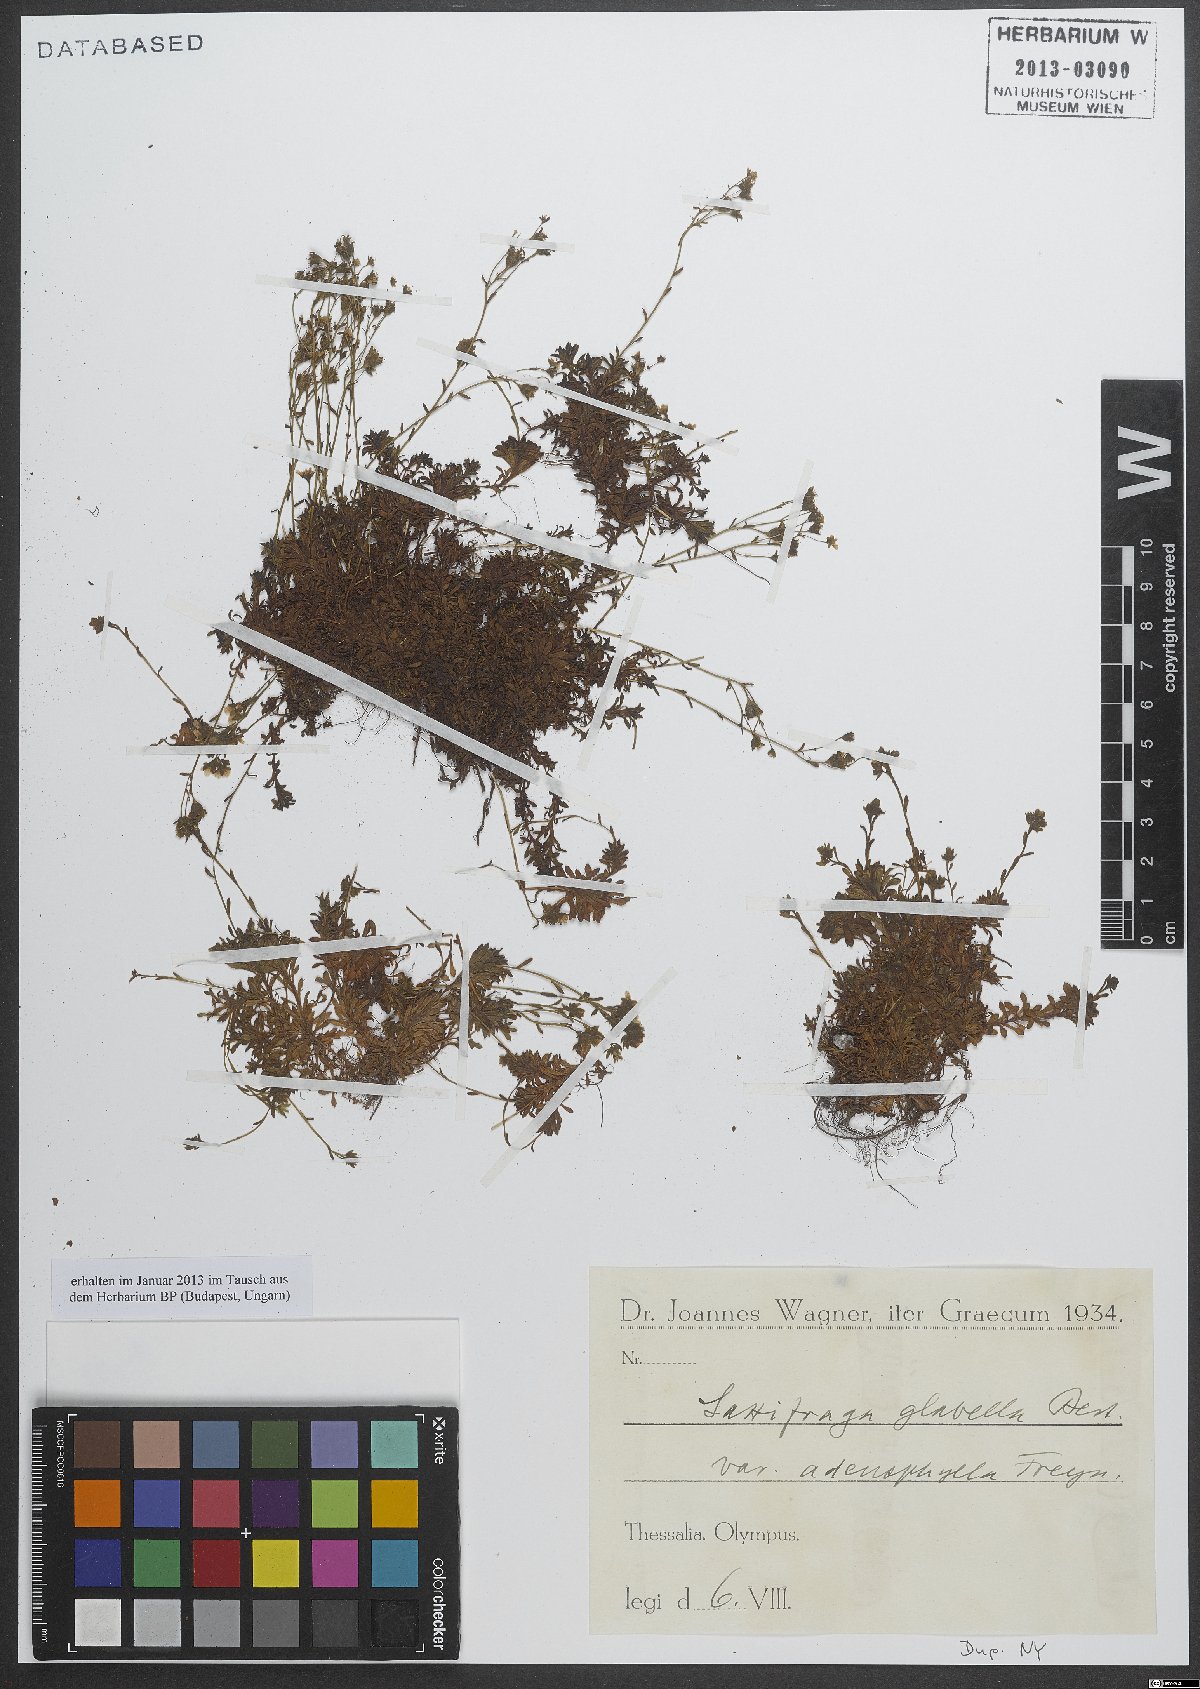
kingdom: Plantae
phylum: Tracheophyta
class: Magnoliopsida
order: Saxifragales
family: Saxifragaceae
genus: Saxifraga
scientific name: Saxifraga glabella
